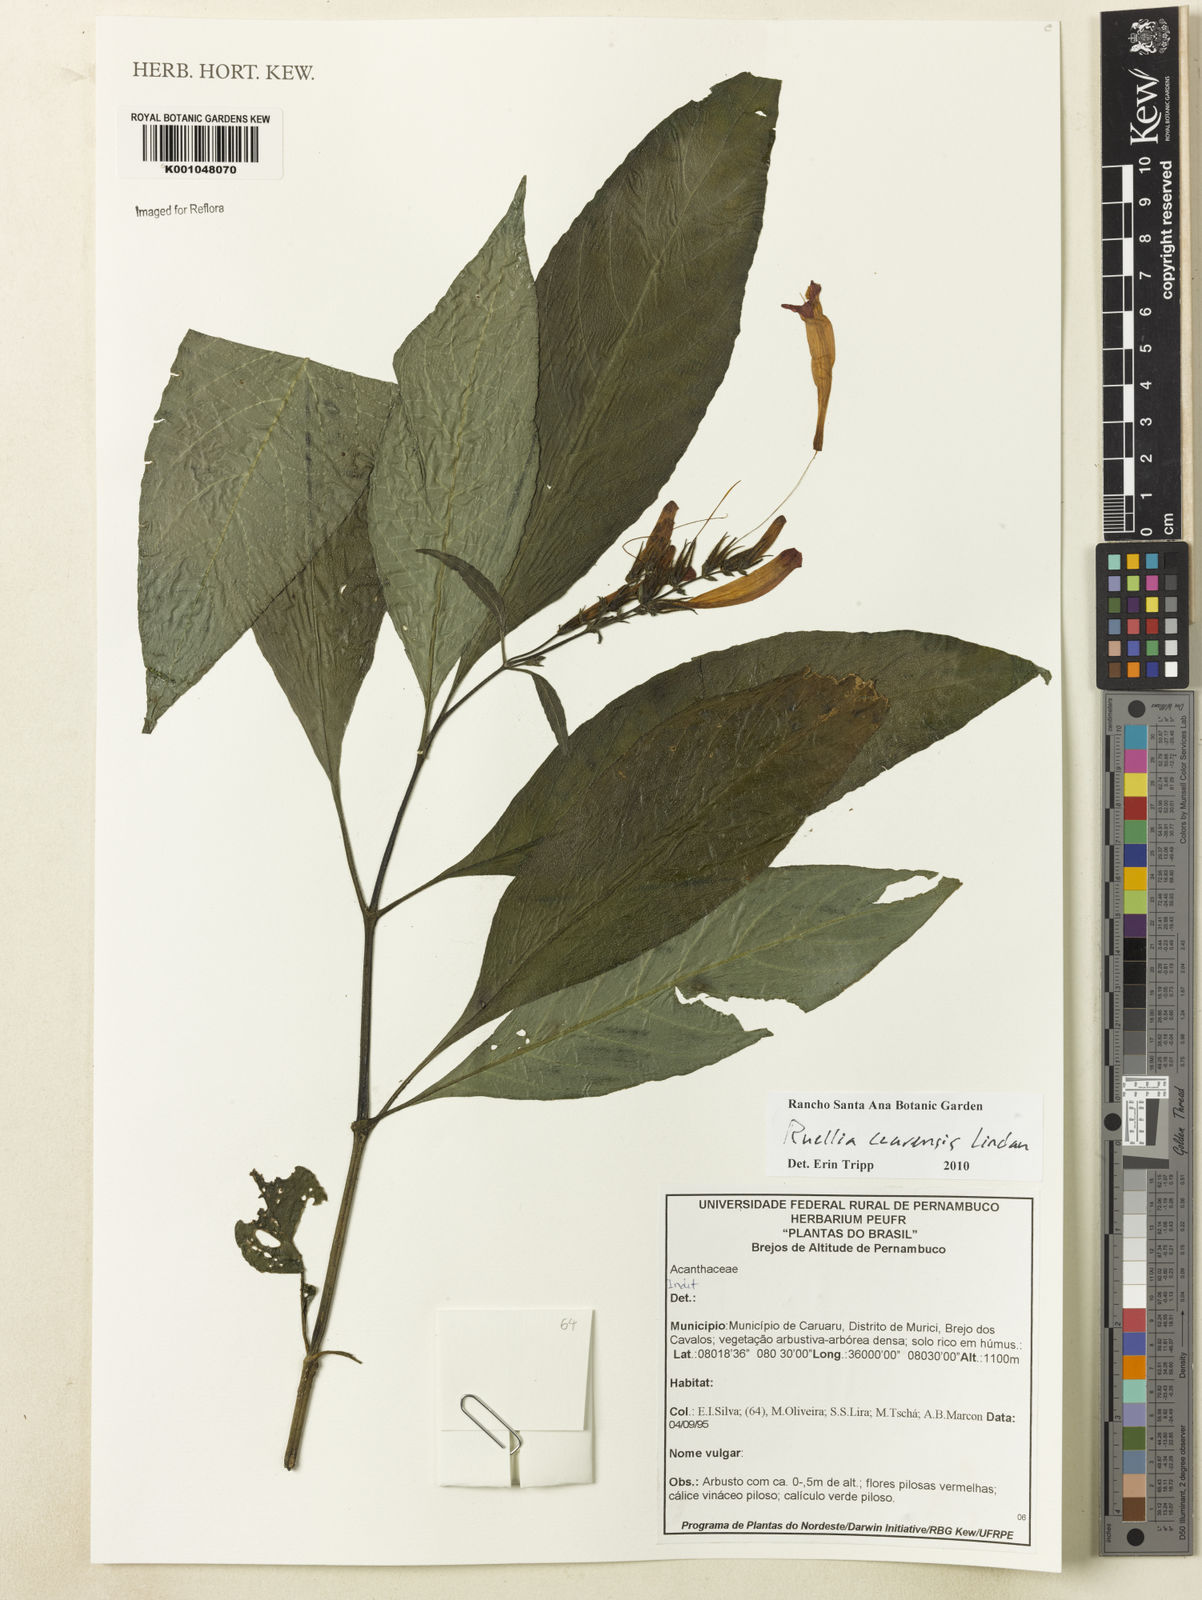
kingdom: Plantae
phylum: Tracheophyta
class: Magnoliopsida
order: Lamiales
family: Acanthaceae
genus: Ruellia
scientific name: Ruellia cearensis
